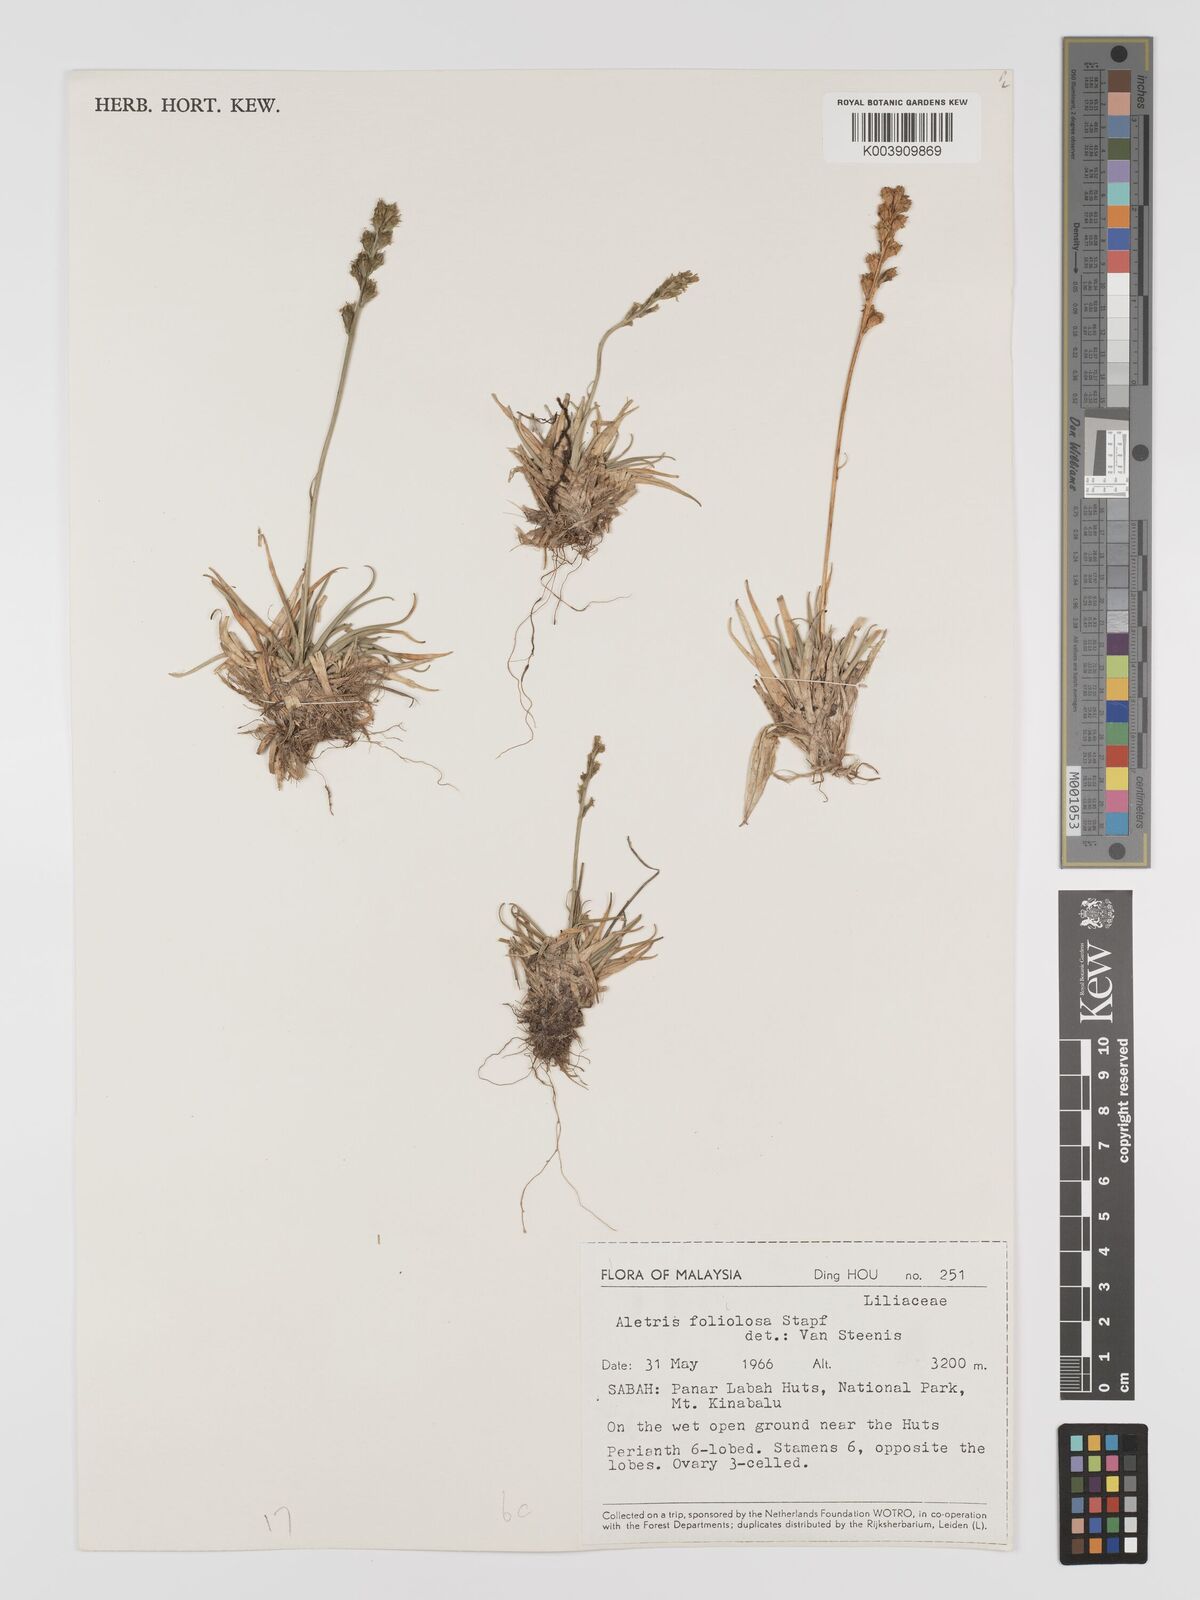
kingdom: Plantae
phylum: Tracheophyta
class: Liliopsida
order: Dioscoreales
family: Nartheciaceae
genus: Aletris
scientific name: Aletris foliolosa
